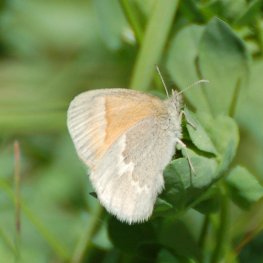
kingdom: Animalia
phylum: Arthropoda
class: Insecta
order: Lepidoptera
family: Nymphalidae
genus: Coenonympha
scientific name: Coenonympha tullia
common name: Large Heath
